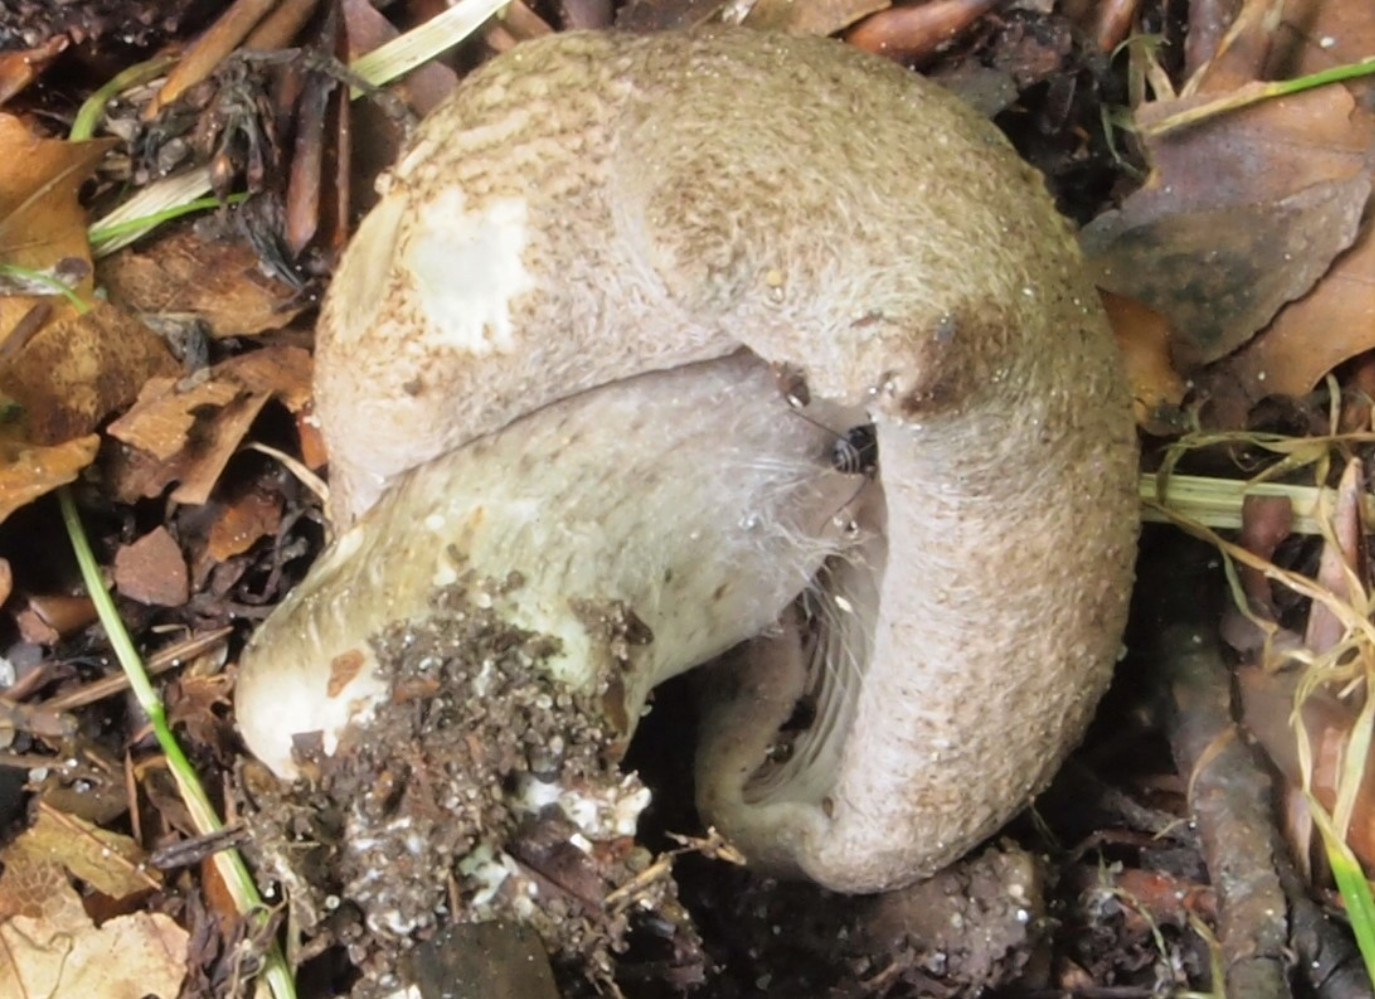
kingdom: Fungi
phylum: Basidiomycota
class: Agaricomycetes
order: Agaricales
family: Tricholomataceae
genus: Tricholoma
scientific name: Tricholoma scalpturatum
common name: gulplettet ridderhat
